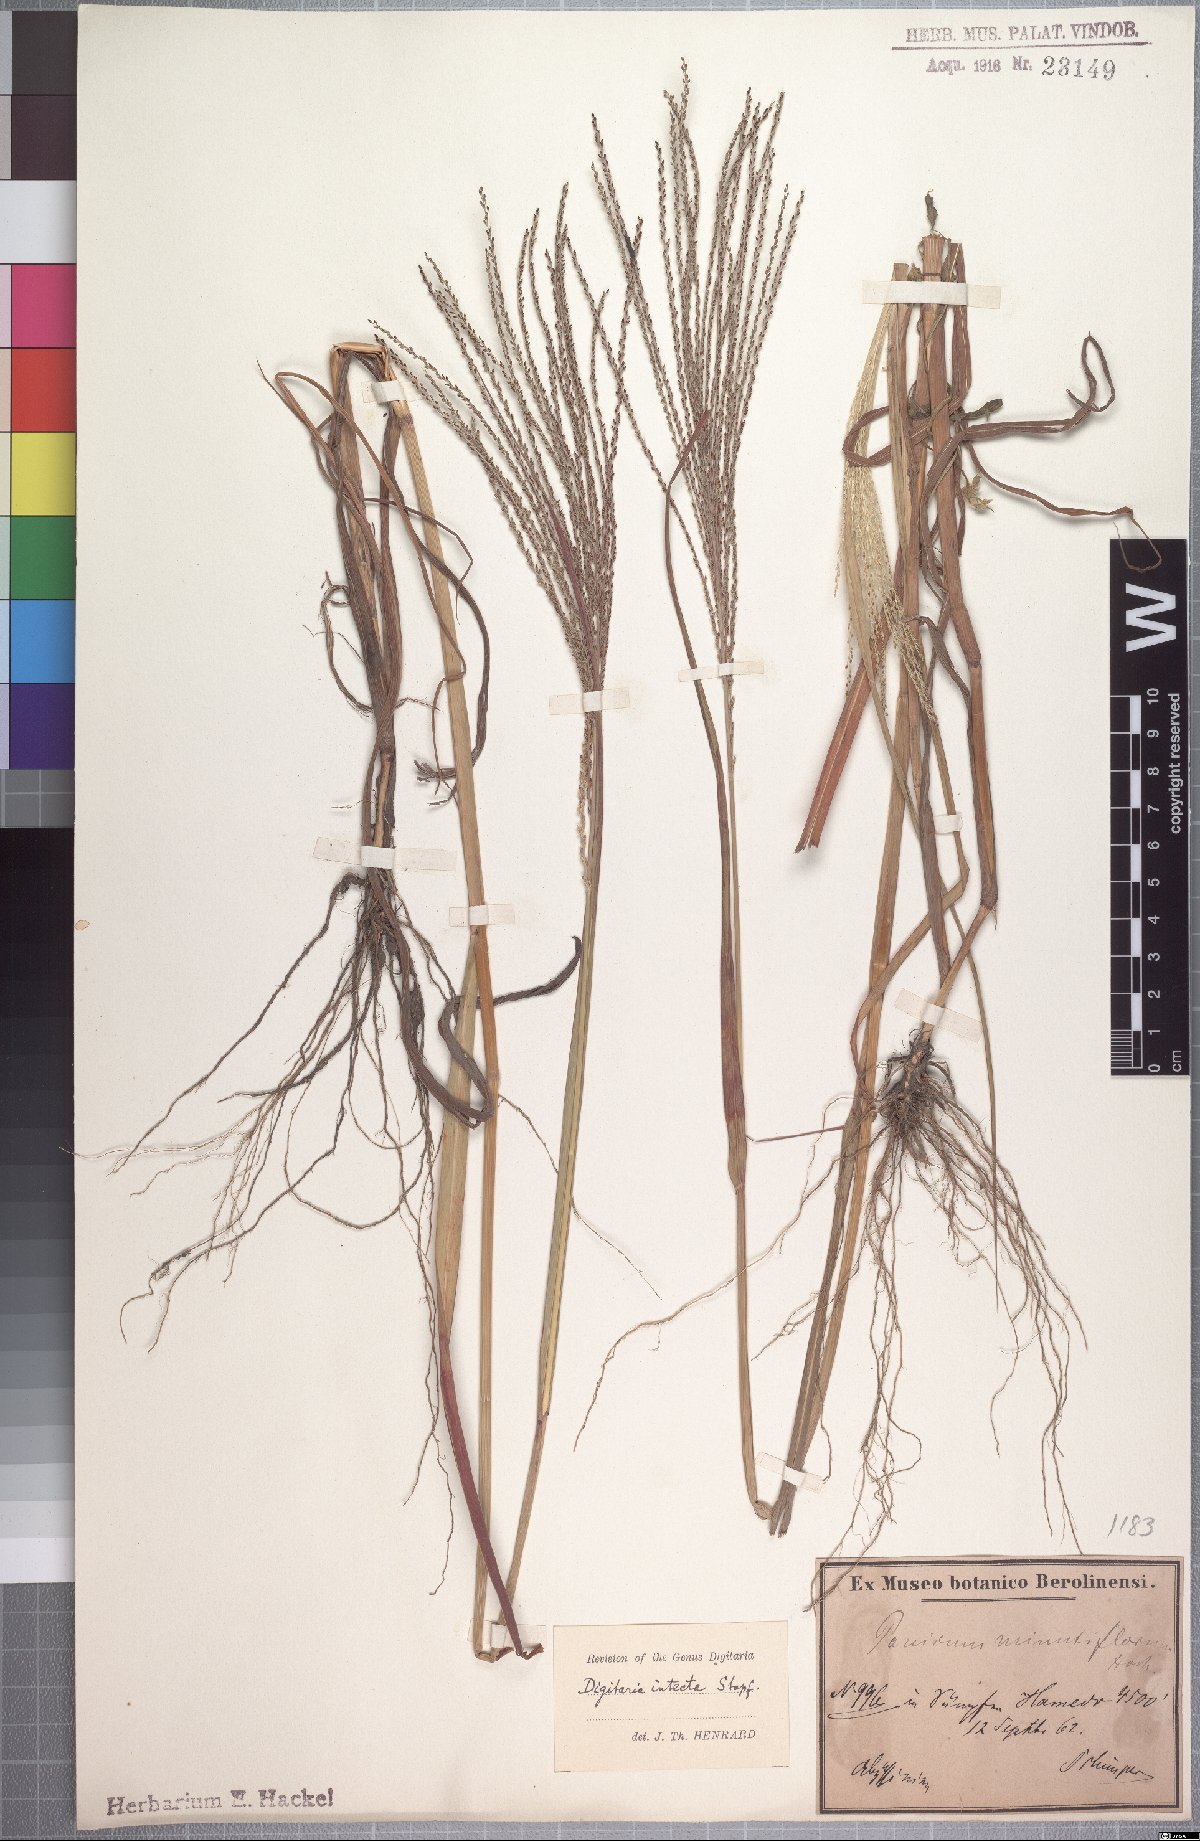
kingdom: Plantae
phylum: Tracheophyta
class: Liliopsida
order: Poales
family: Poaceae
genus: Digitaria
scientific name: Digitaria intecta
